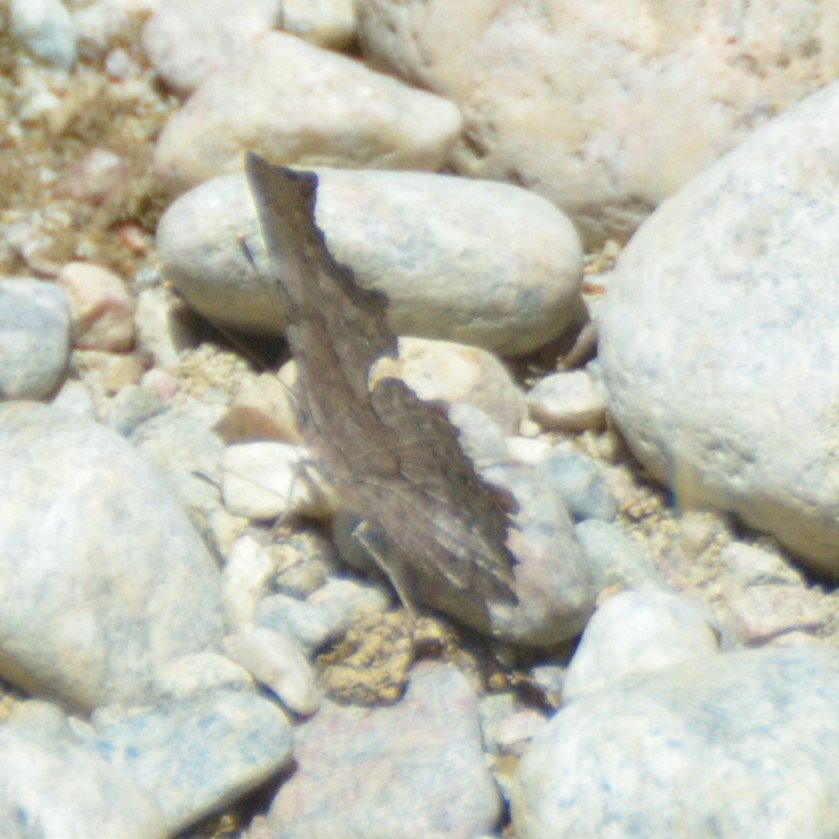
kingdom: Animalia
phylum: Arthropoda
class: Insecta
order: Lepidoptera
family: Nymphalidae
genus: Polygonia
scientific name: Polygonia
